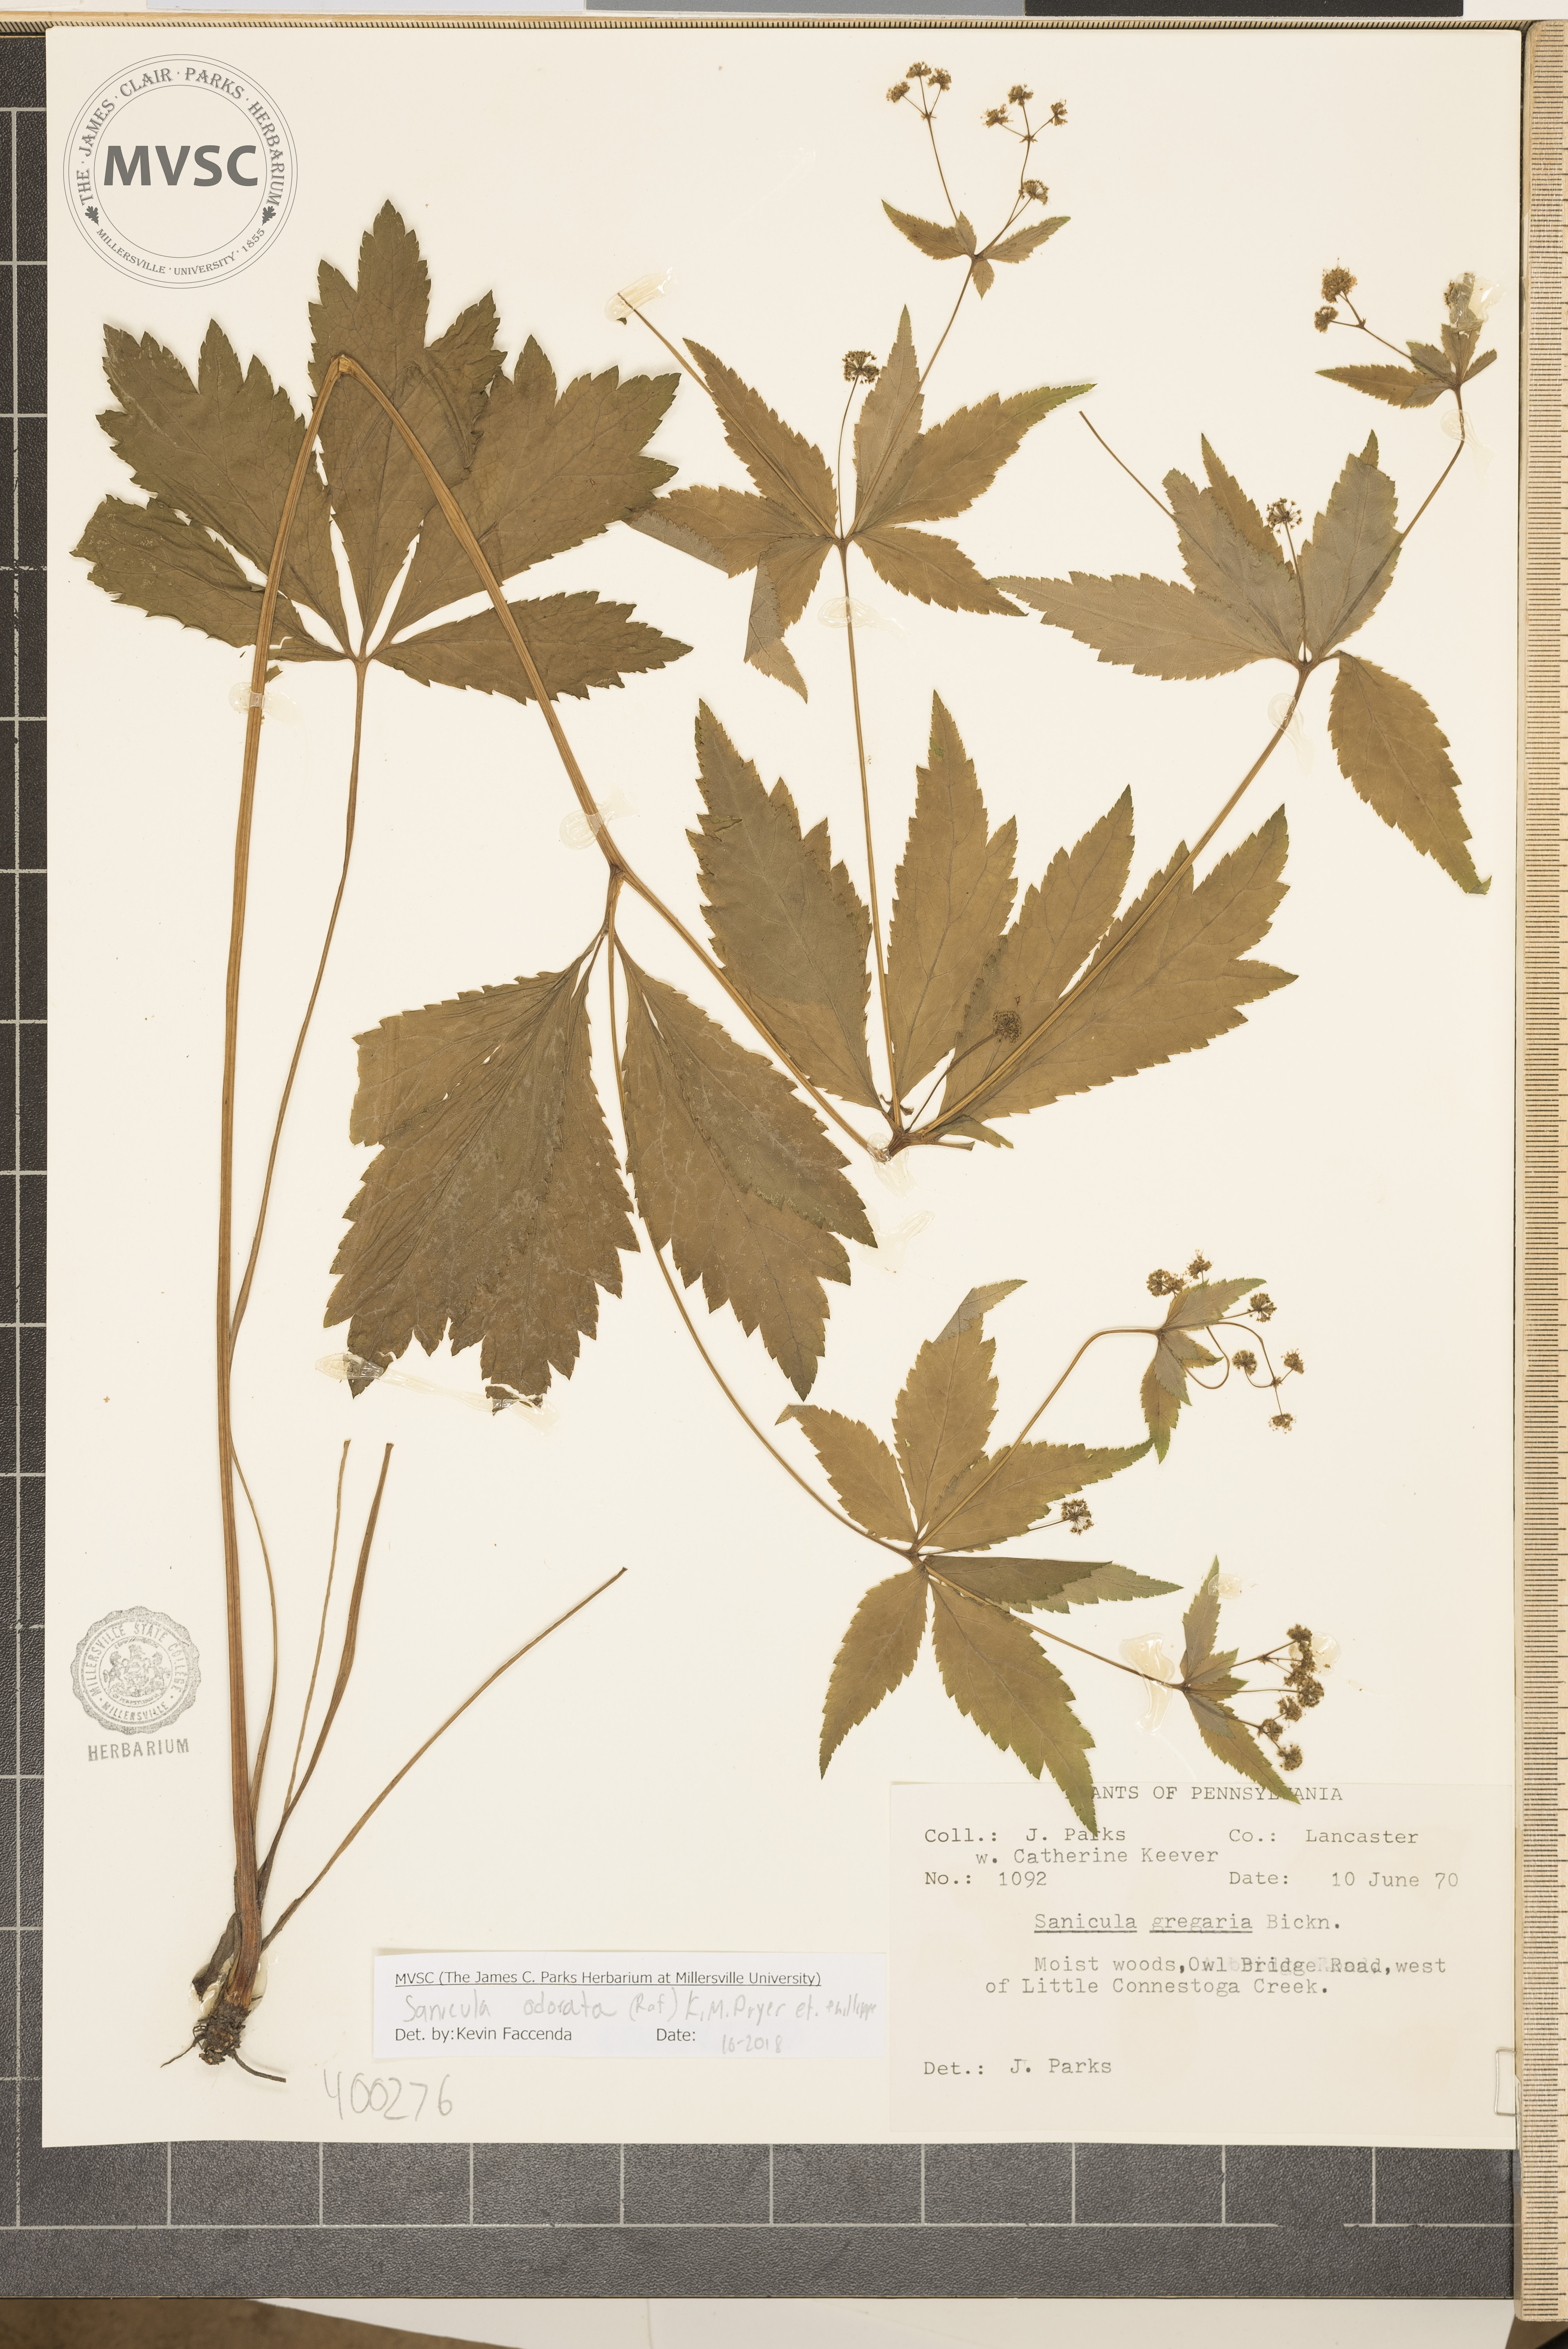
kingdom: Plantae
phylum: Tracheophyta
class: Magnoliopsida
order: Apiales
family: Apiaceae
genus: Sanicula
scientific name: Sanicula odorata
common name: Cluster sanicle
